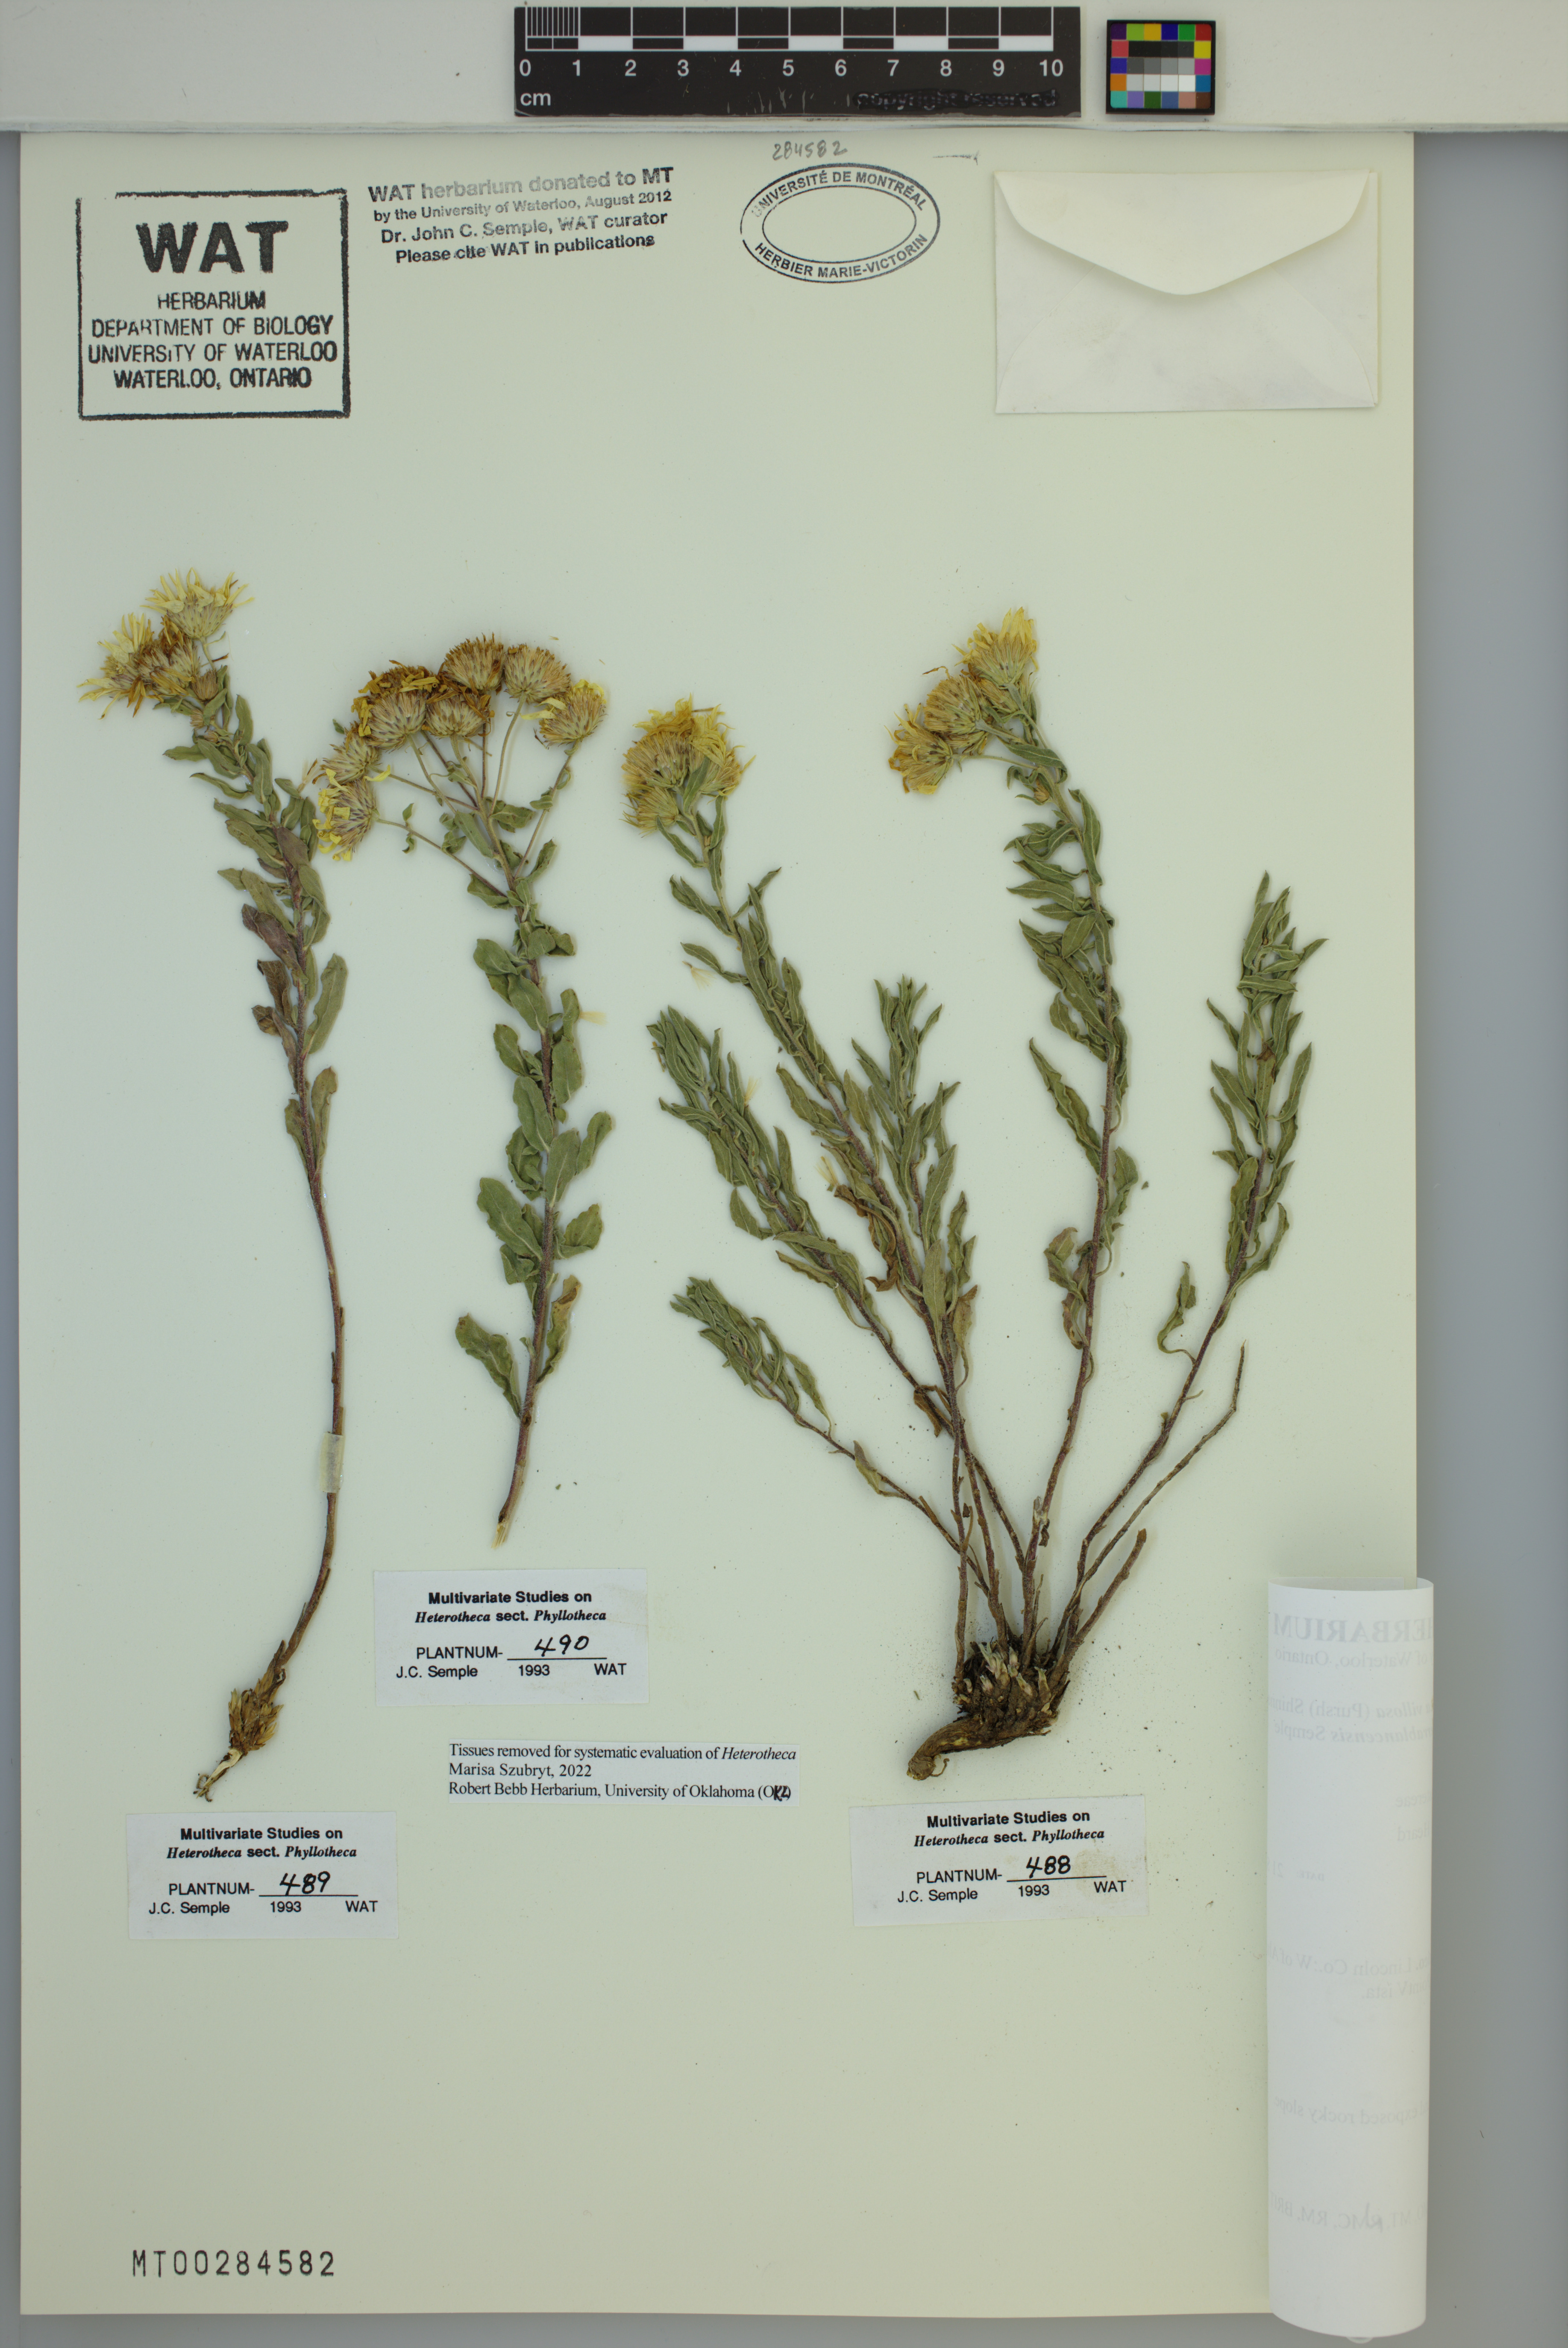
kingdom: Plantae
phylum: Tracheophyta
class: Magnoliopsida
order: Asterales
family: Asteraceae
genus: Heterotheca
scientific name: Heterotheca sierrablancensis
